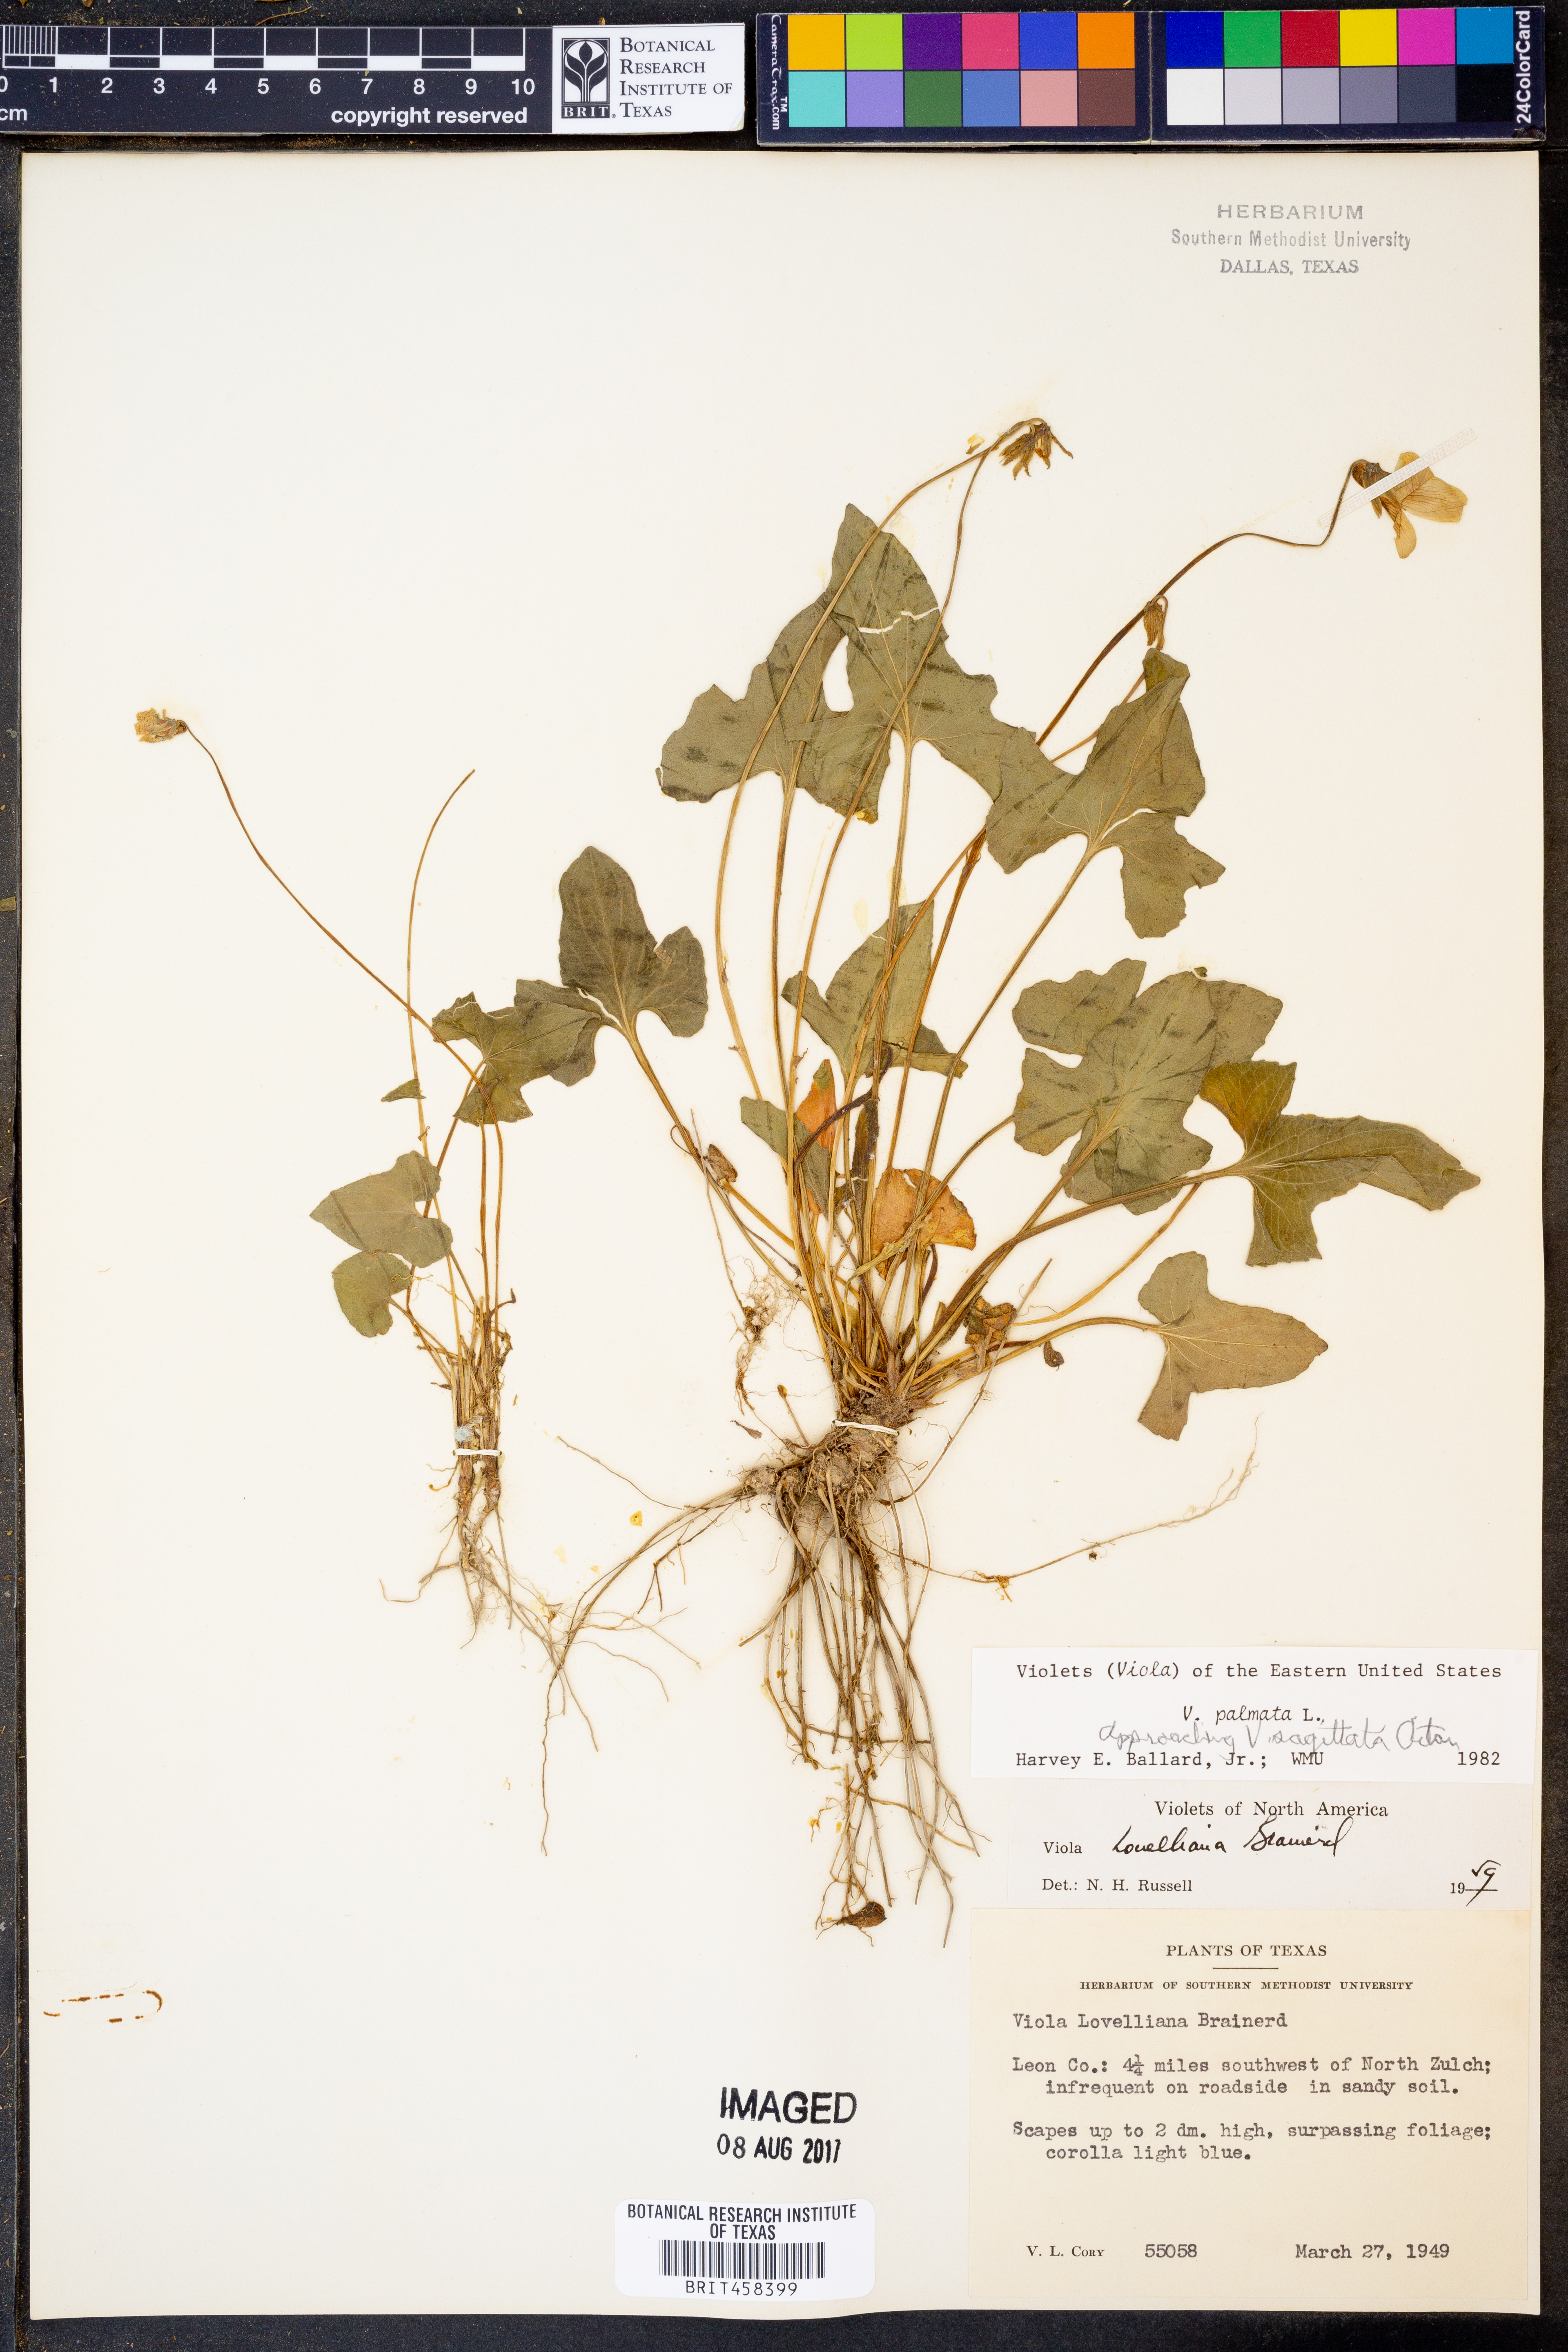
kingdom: Plantae
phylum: Tracheophyta
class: Magnoliopsida
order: Malpighiales
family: Violaceae
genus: Viola
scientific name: Viola palmata
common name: Early blue violet
